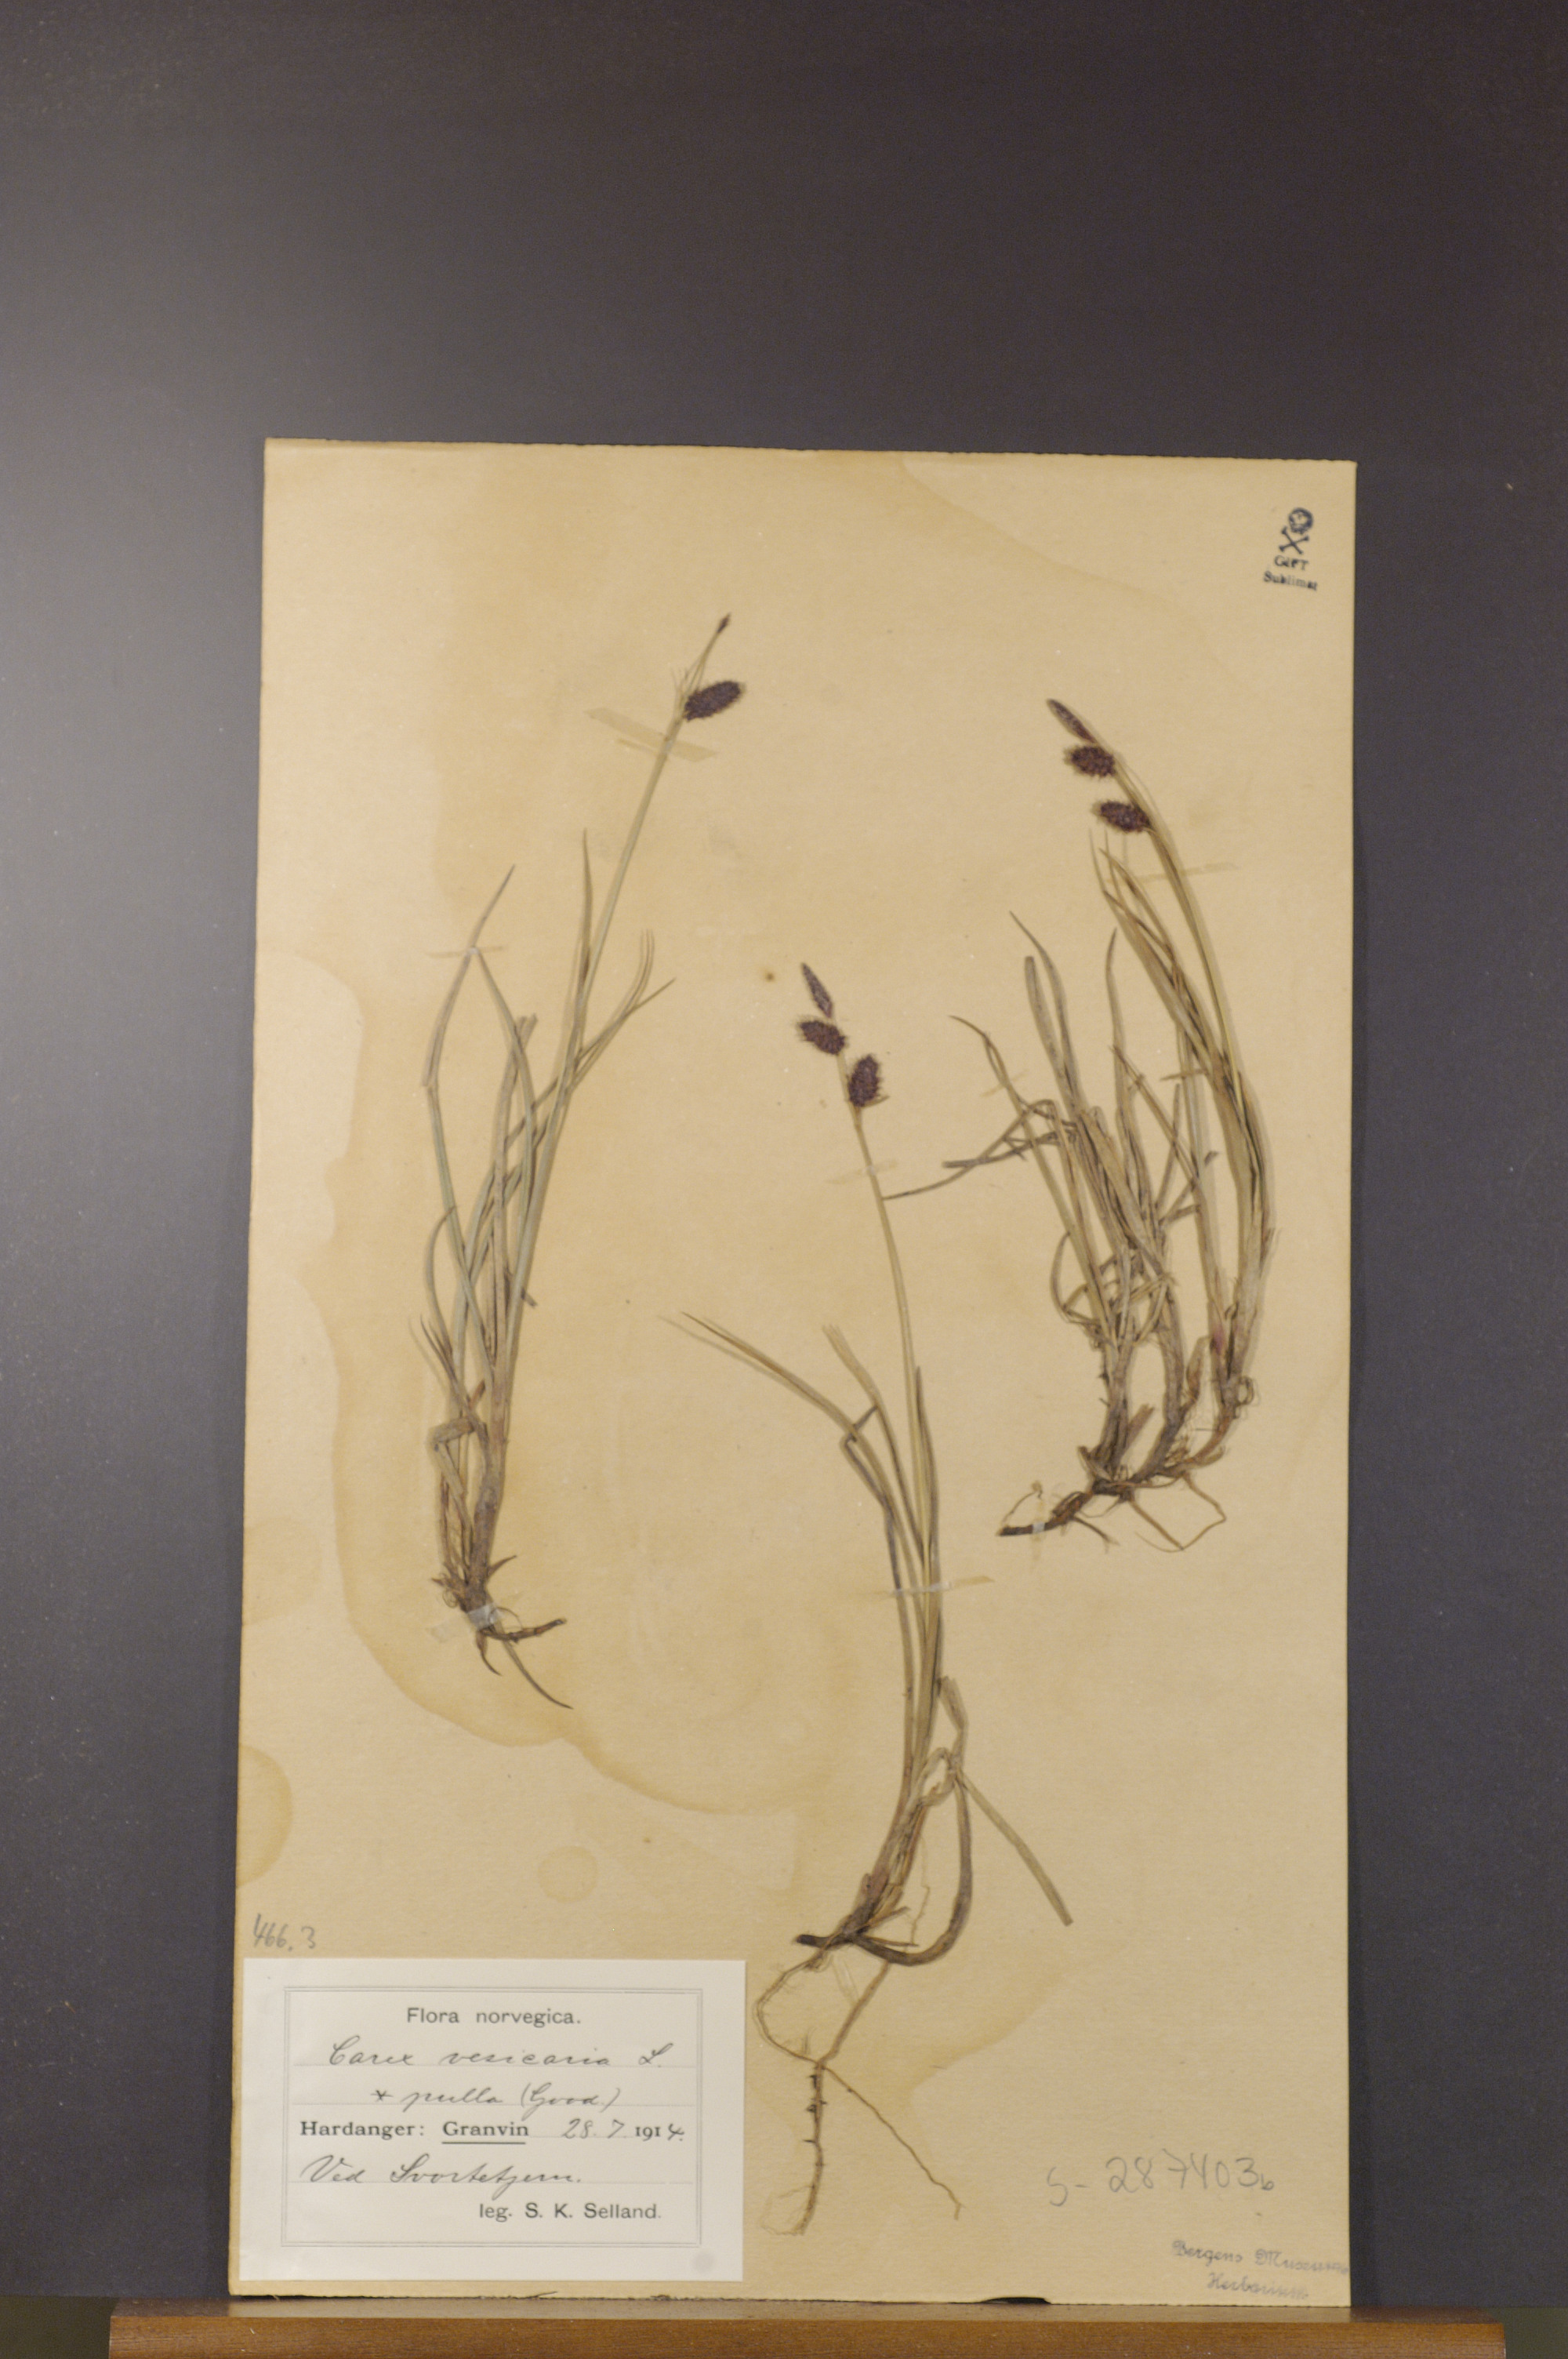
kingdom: Plantae
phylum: Tracheophyta
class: Liliopsida
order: Poales
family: Cyperaceae
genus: Carex
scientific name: Carex saxatilis
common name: Russet sedge
